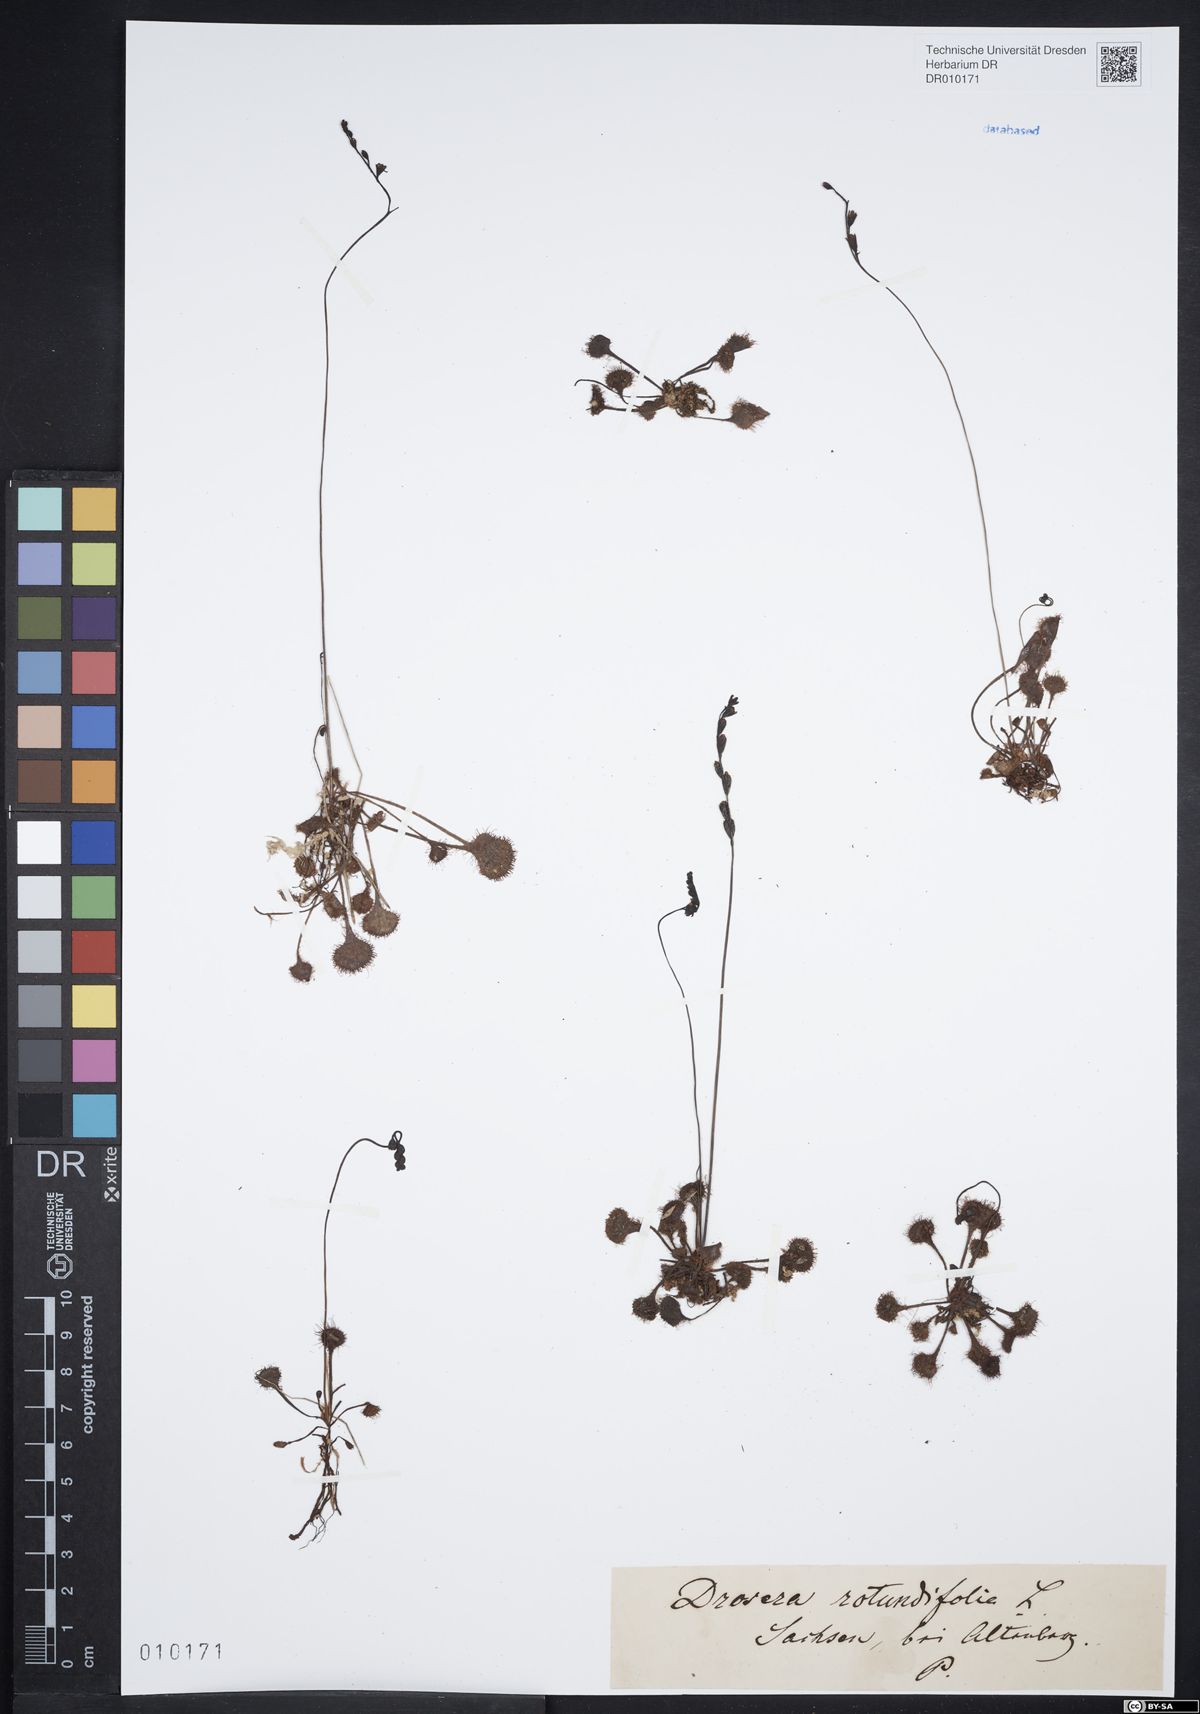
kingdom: Plantae
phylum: Tracheophyta
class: Magnoliopsida
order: Caryophyllales
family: Droseraceae
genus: Drosera
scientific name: Drosera rotundifolia
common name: Round-leaved sundew
